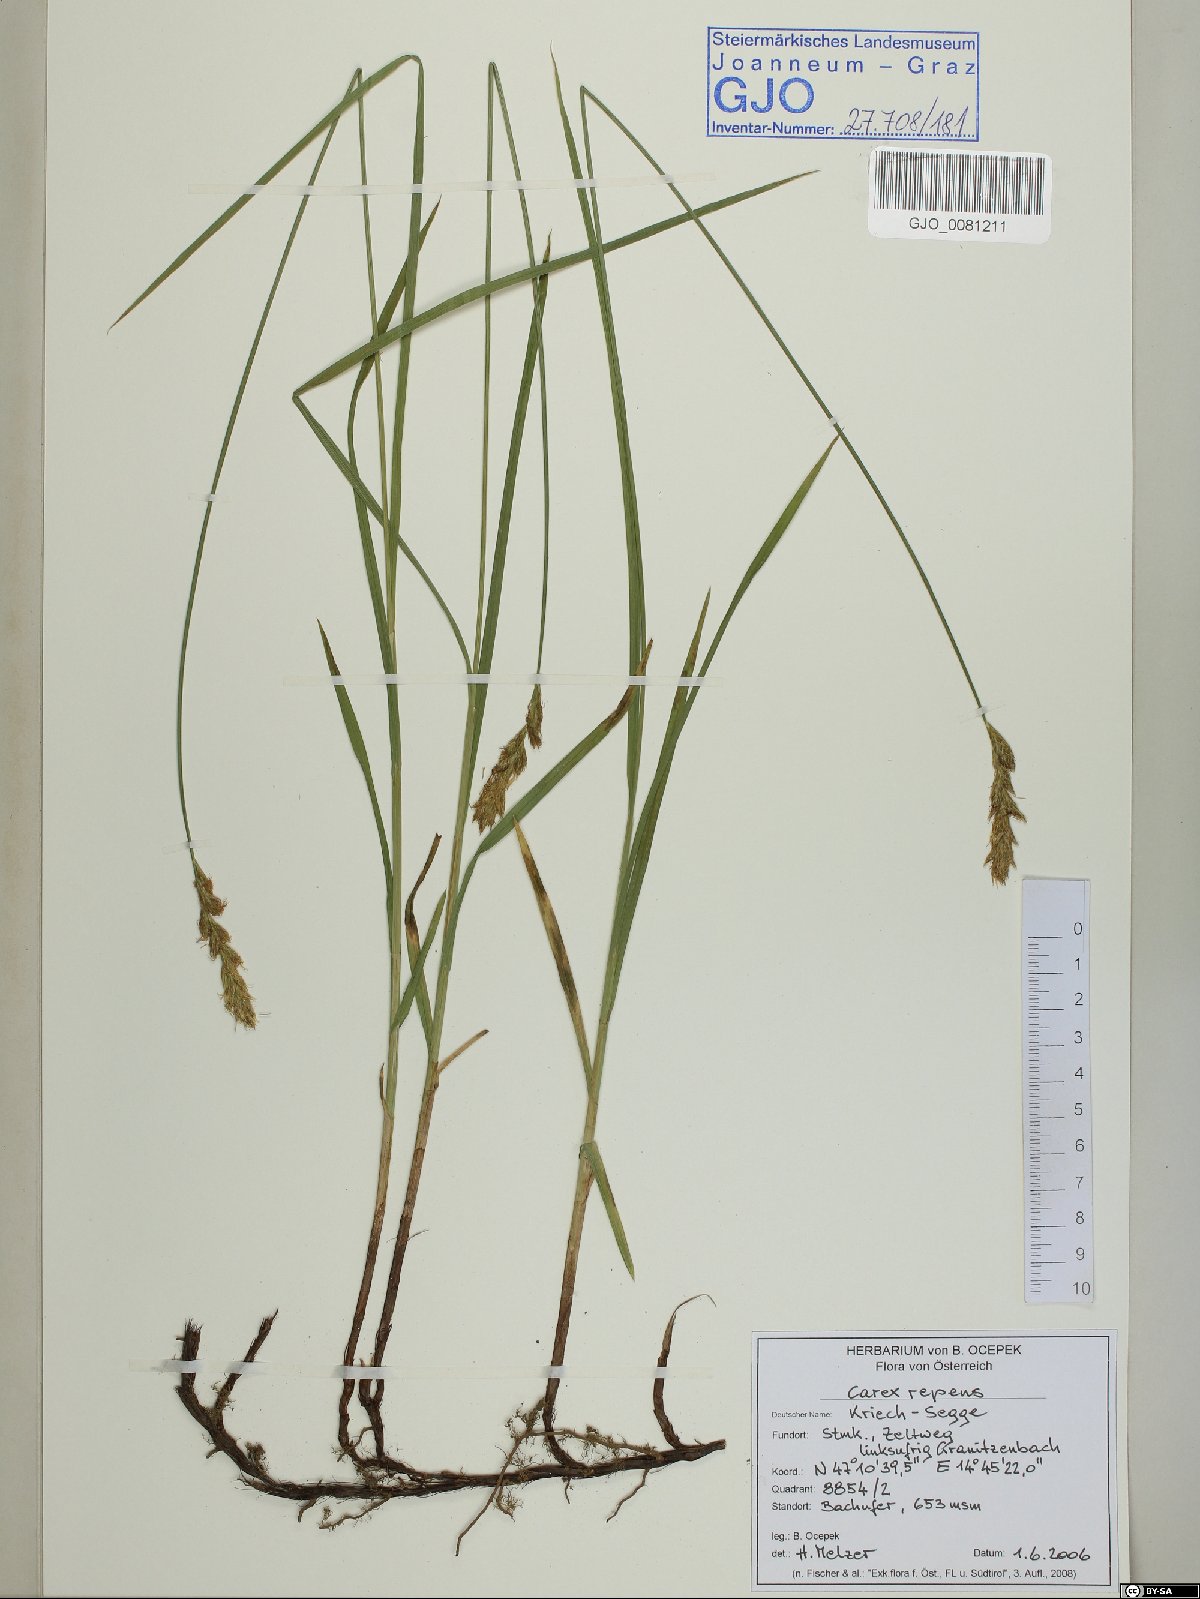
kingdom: Plantae
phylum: Tracheophyta
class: Liliopsida
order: Poales
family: Cyperaceae
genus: Carex
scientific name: Carex repens
